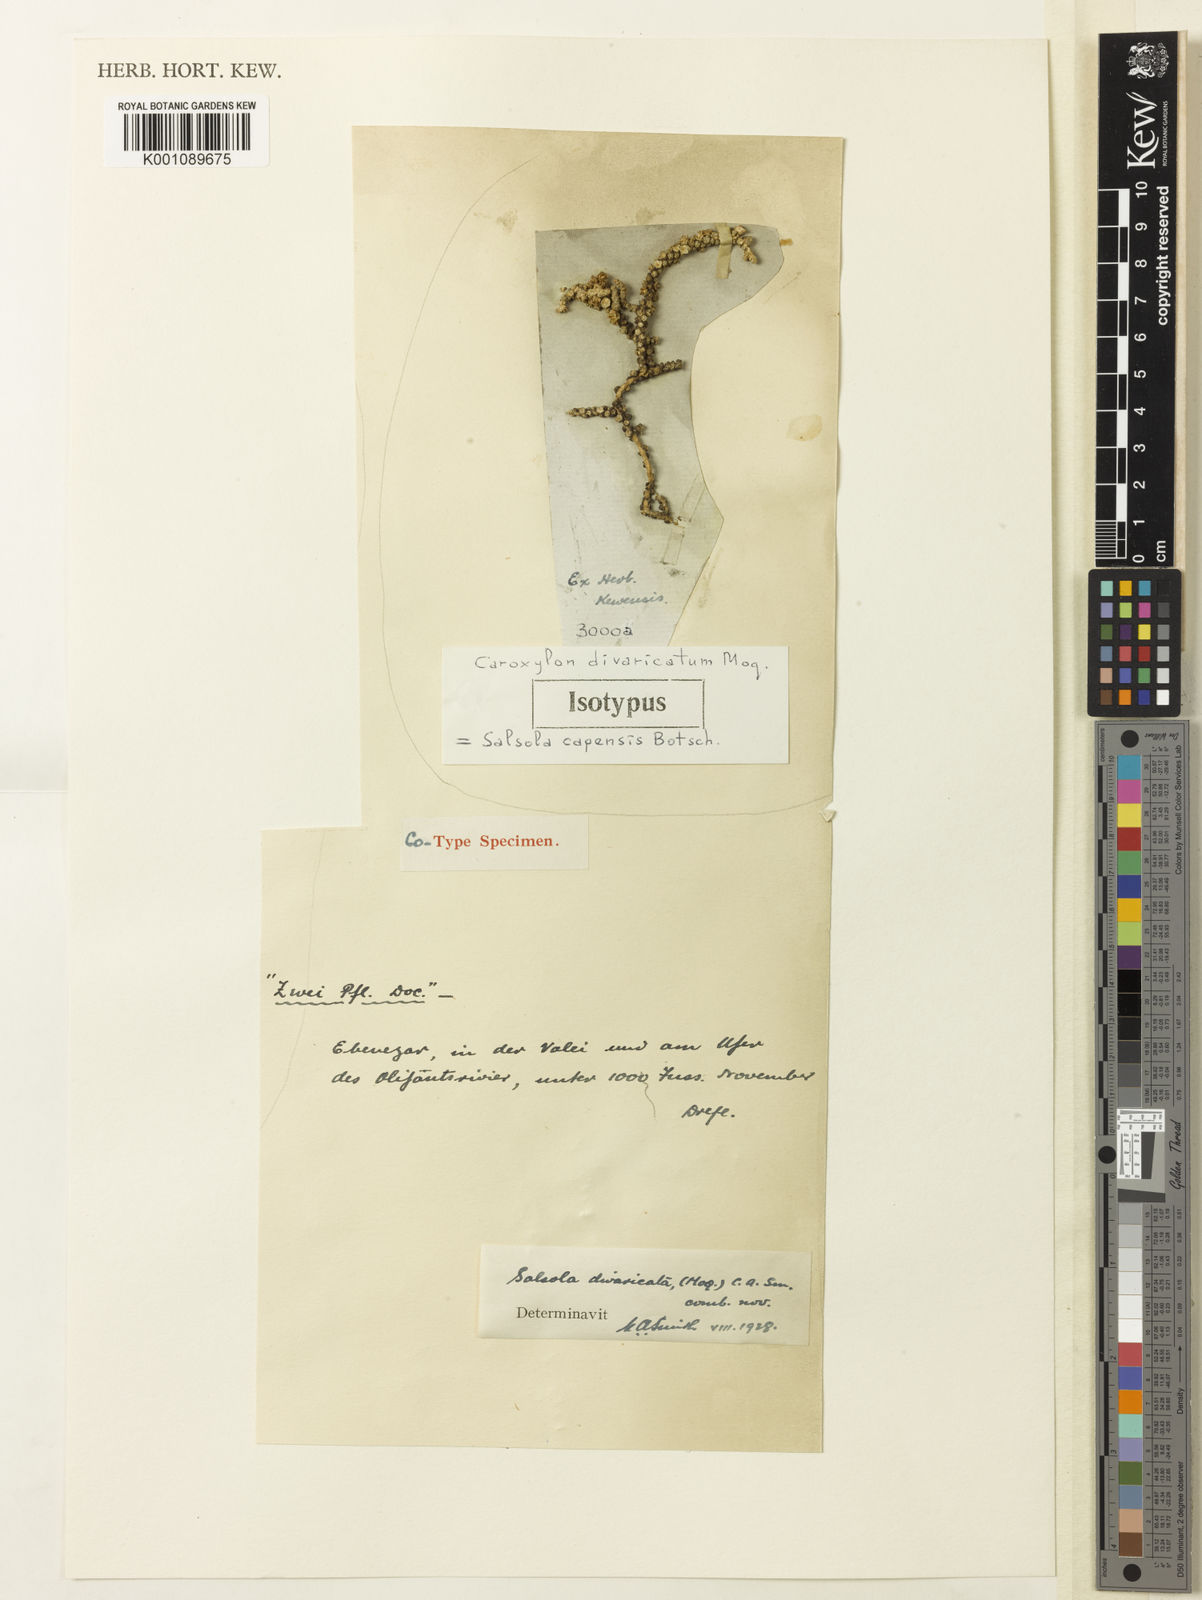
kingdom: Plantae
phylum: Tracheophyta
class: Magnoliopsida
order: Caryophyllales
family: Amaranthaceae
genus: Caroxylon
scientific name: Caroxylon divaricatum
